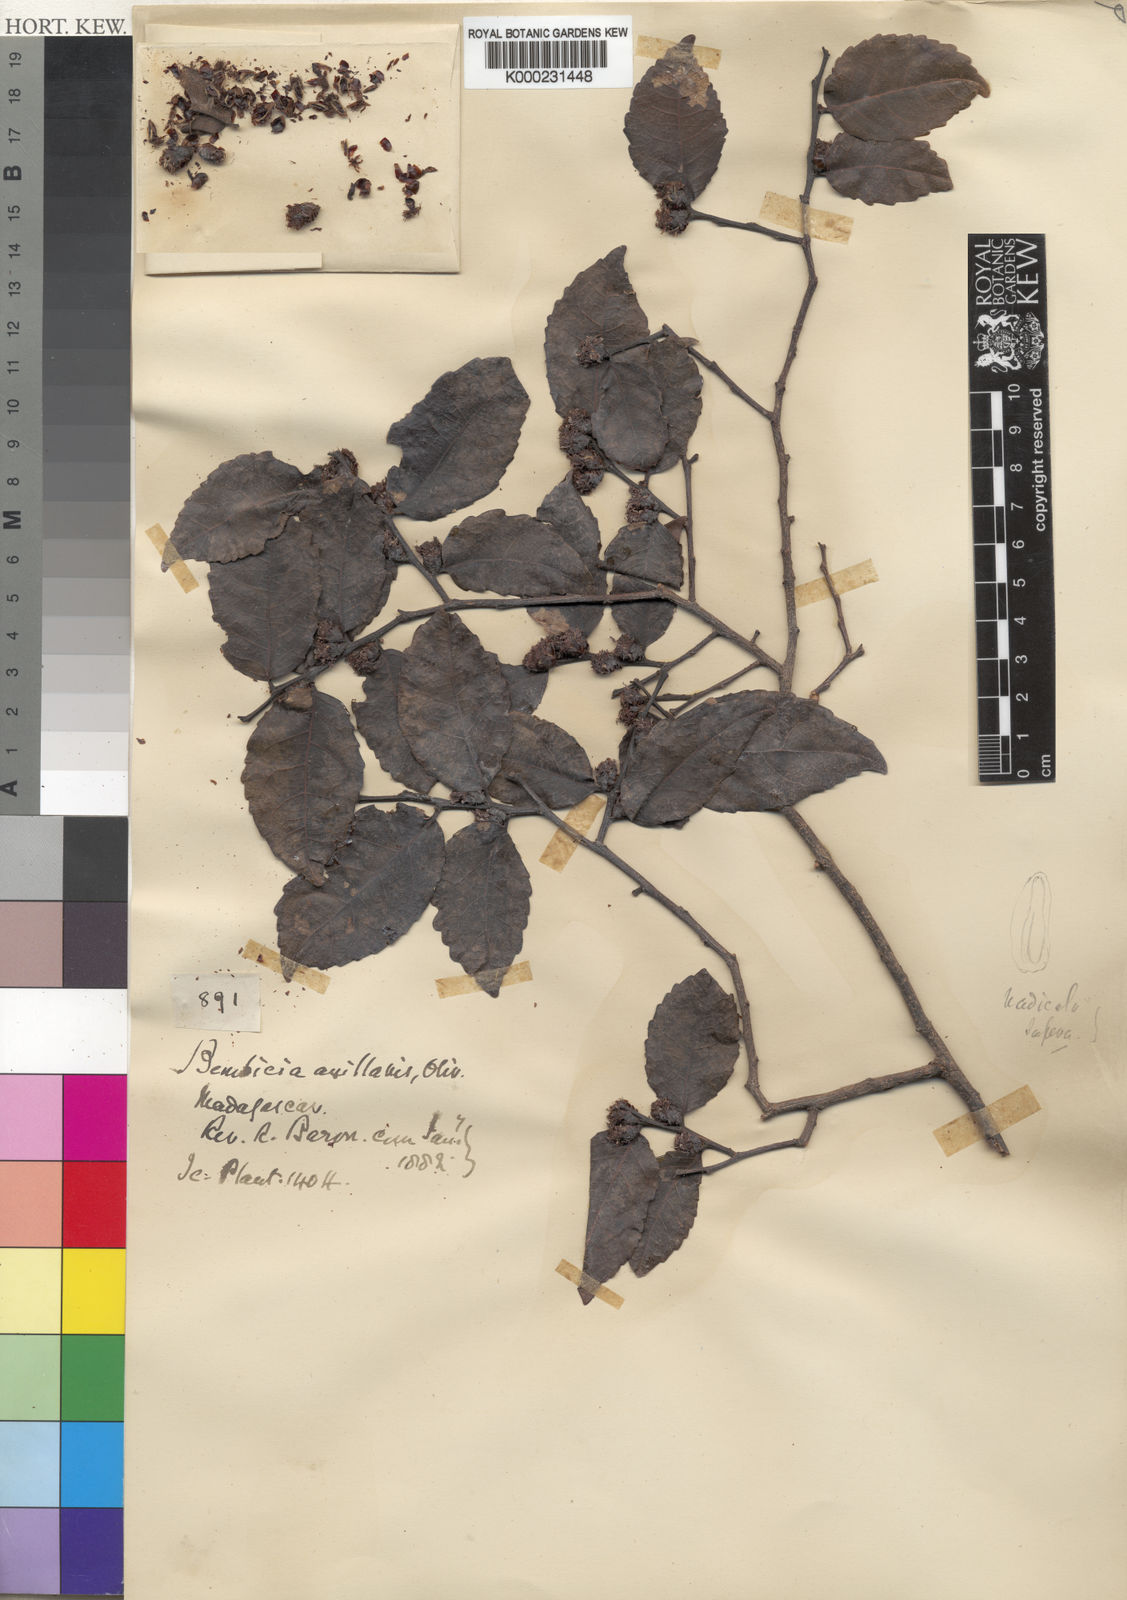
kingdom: Plantae
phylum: Tracheophyta
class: Magnoliopsida
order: Malpighiales
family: Salicaceae
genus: Bembicia
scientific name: Bembicia
